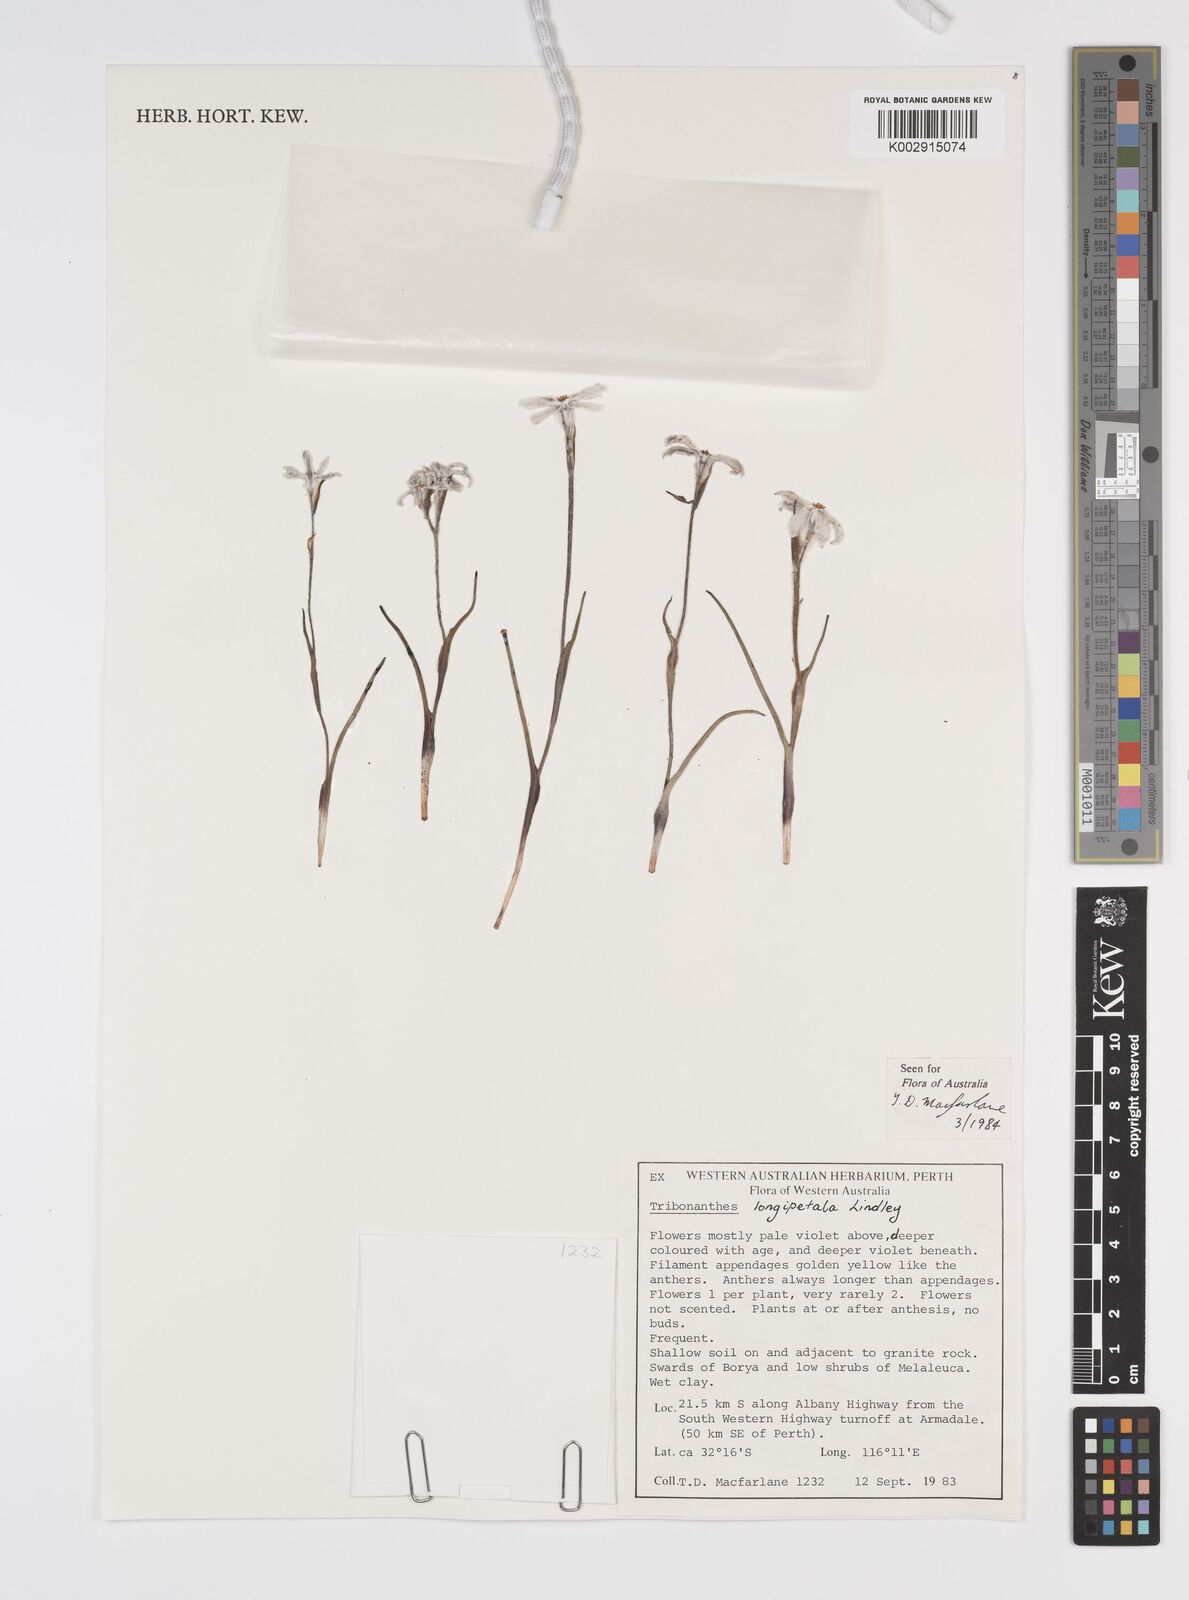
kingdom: Plantae
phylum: Tracheophyta
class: Liliopsida
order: Commelinales
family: Haemodoraceae
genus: Tribonanthes
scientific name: Tribonanthes longipetala
